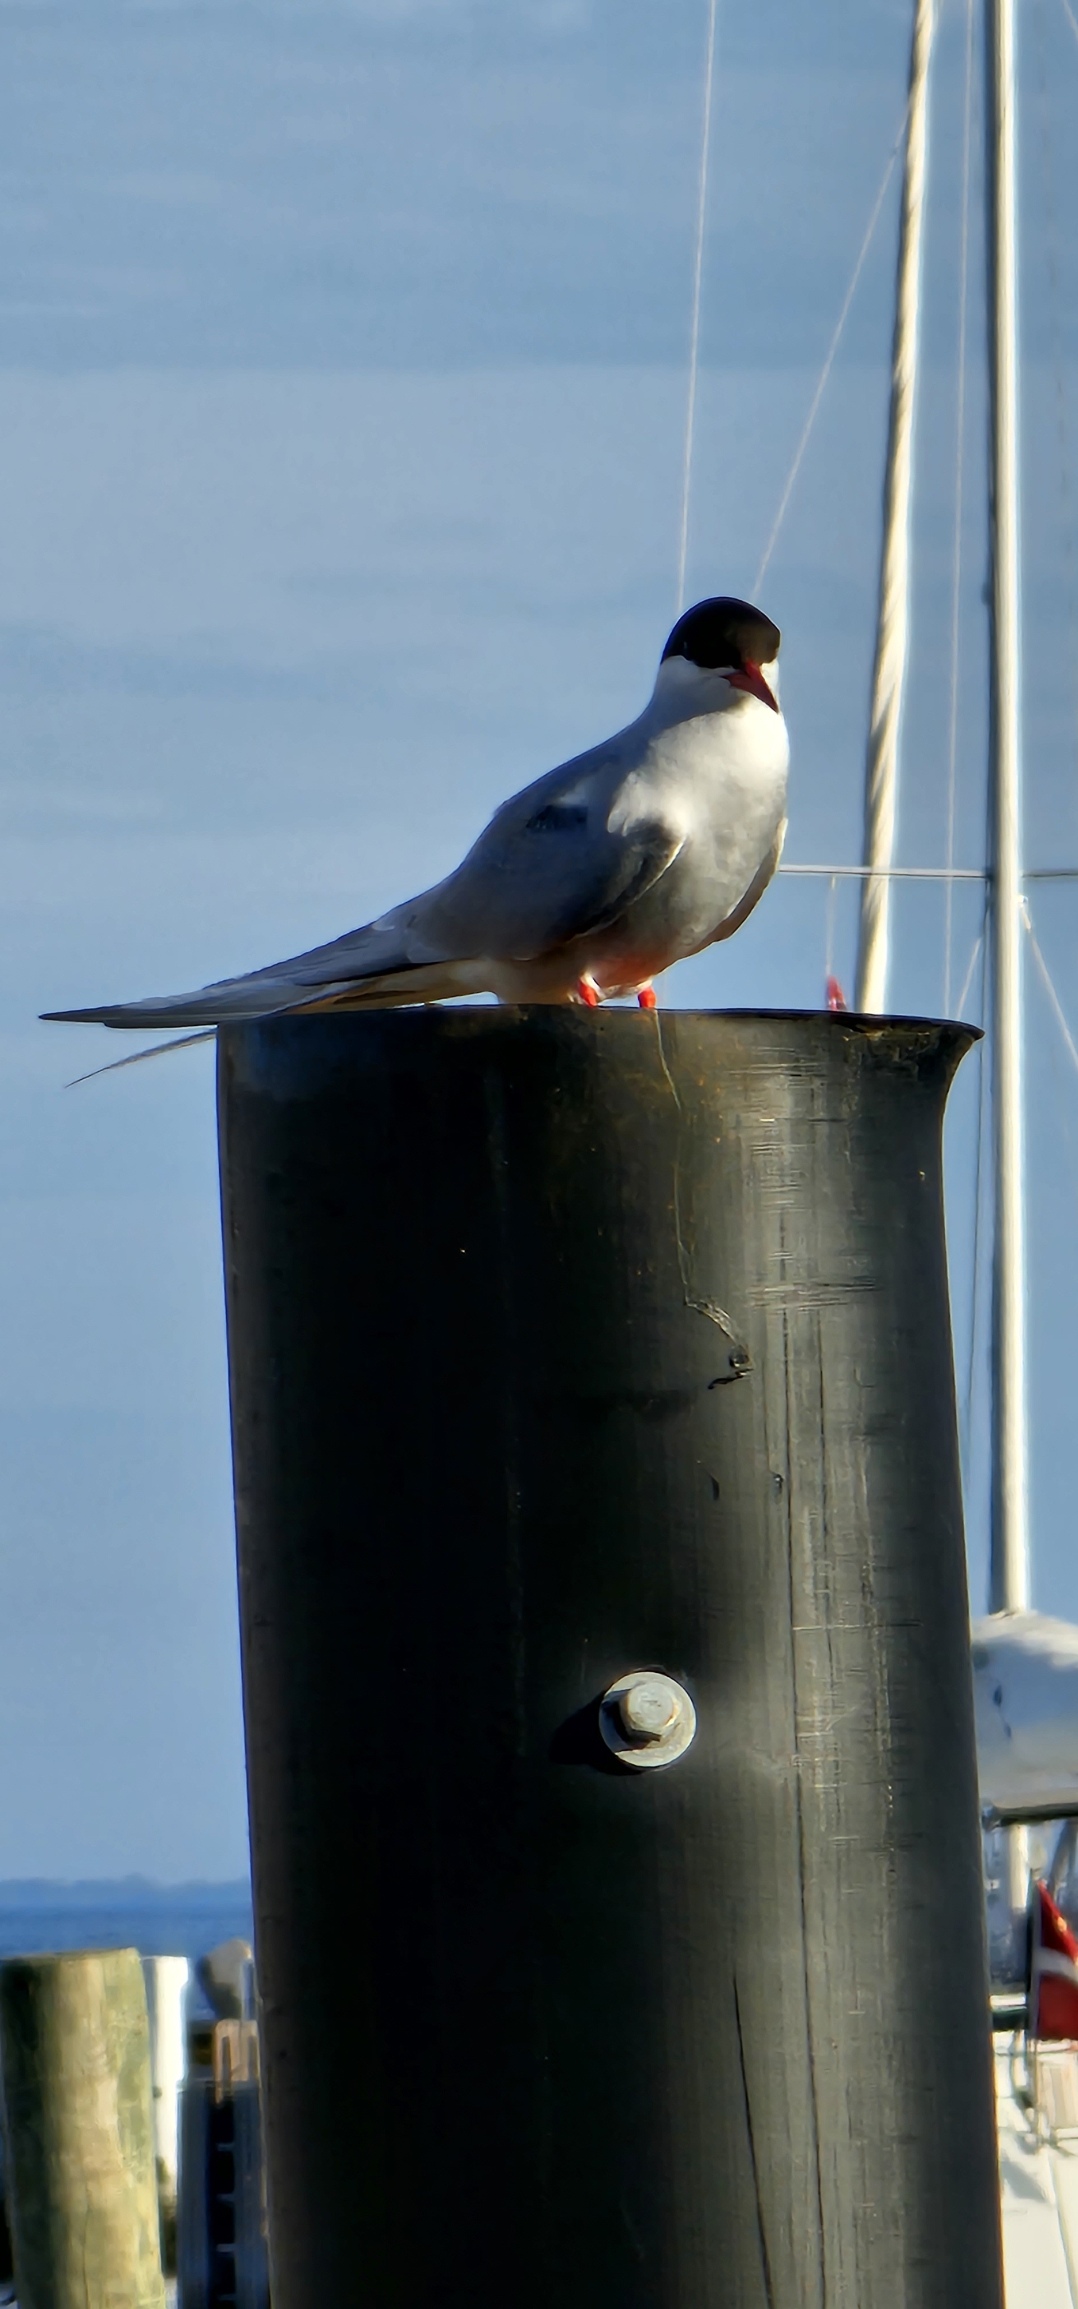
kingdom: Animalia
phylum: Chordata
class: Aves
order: Charadriiformes
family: Laridae
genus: Sterna
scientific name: Sterna hirundo
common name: Fjordterne
